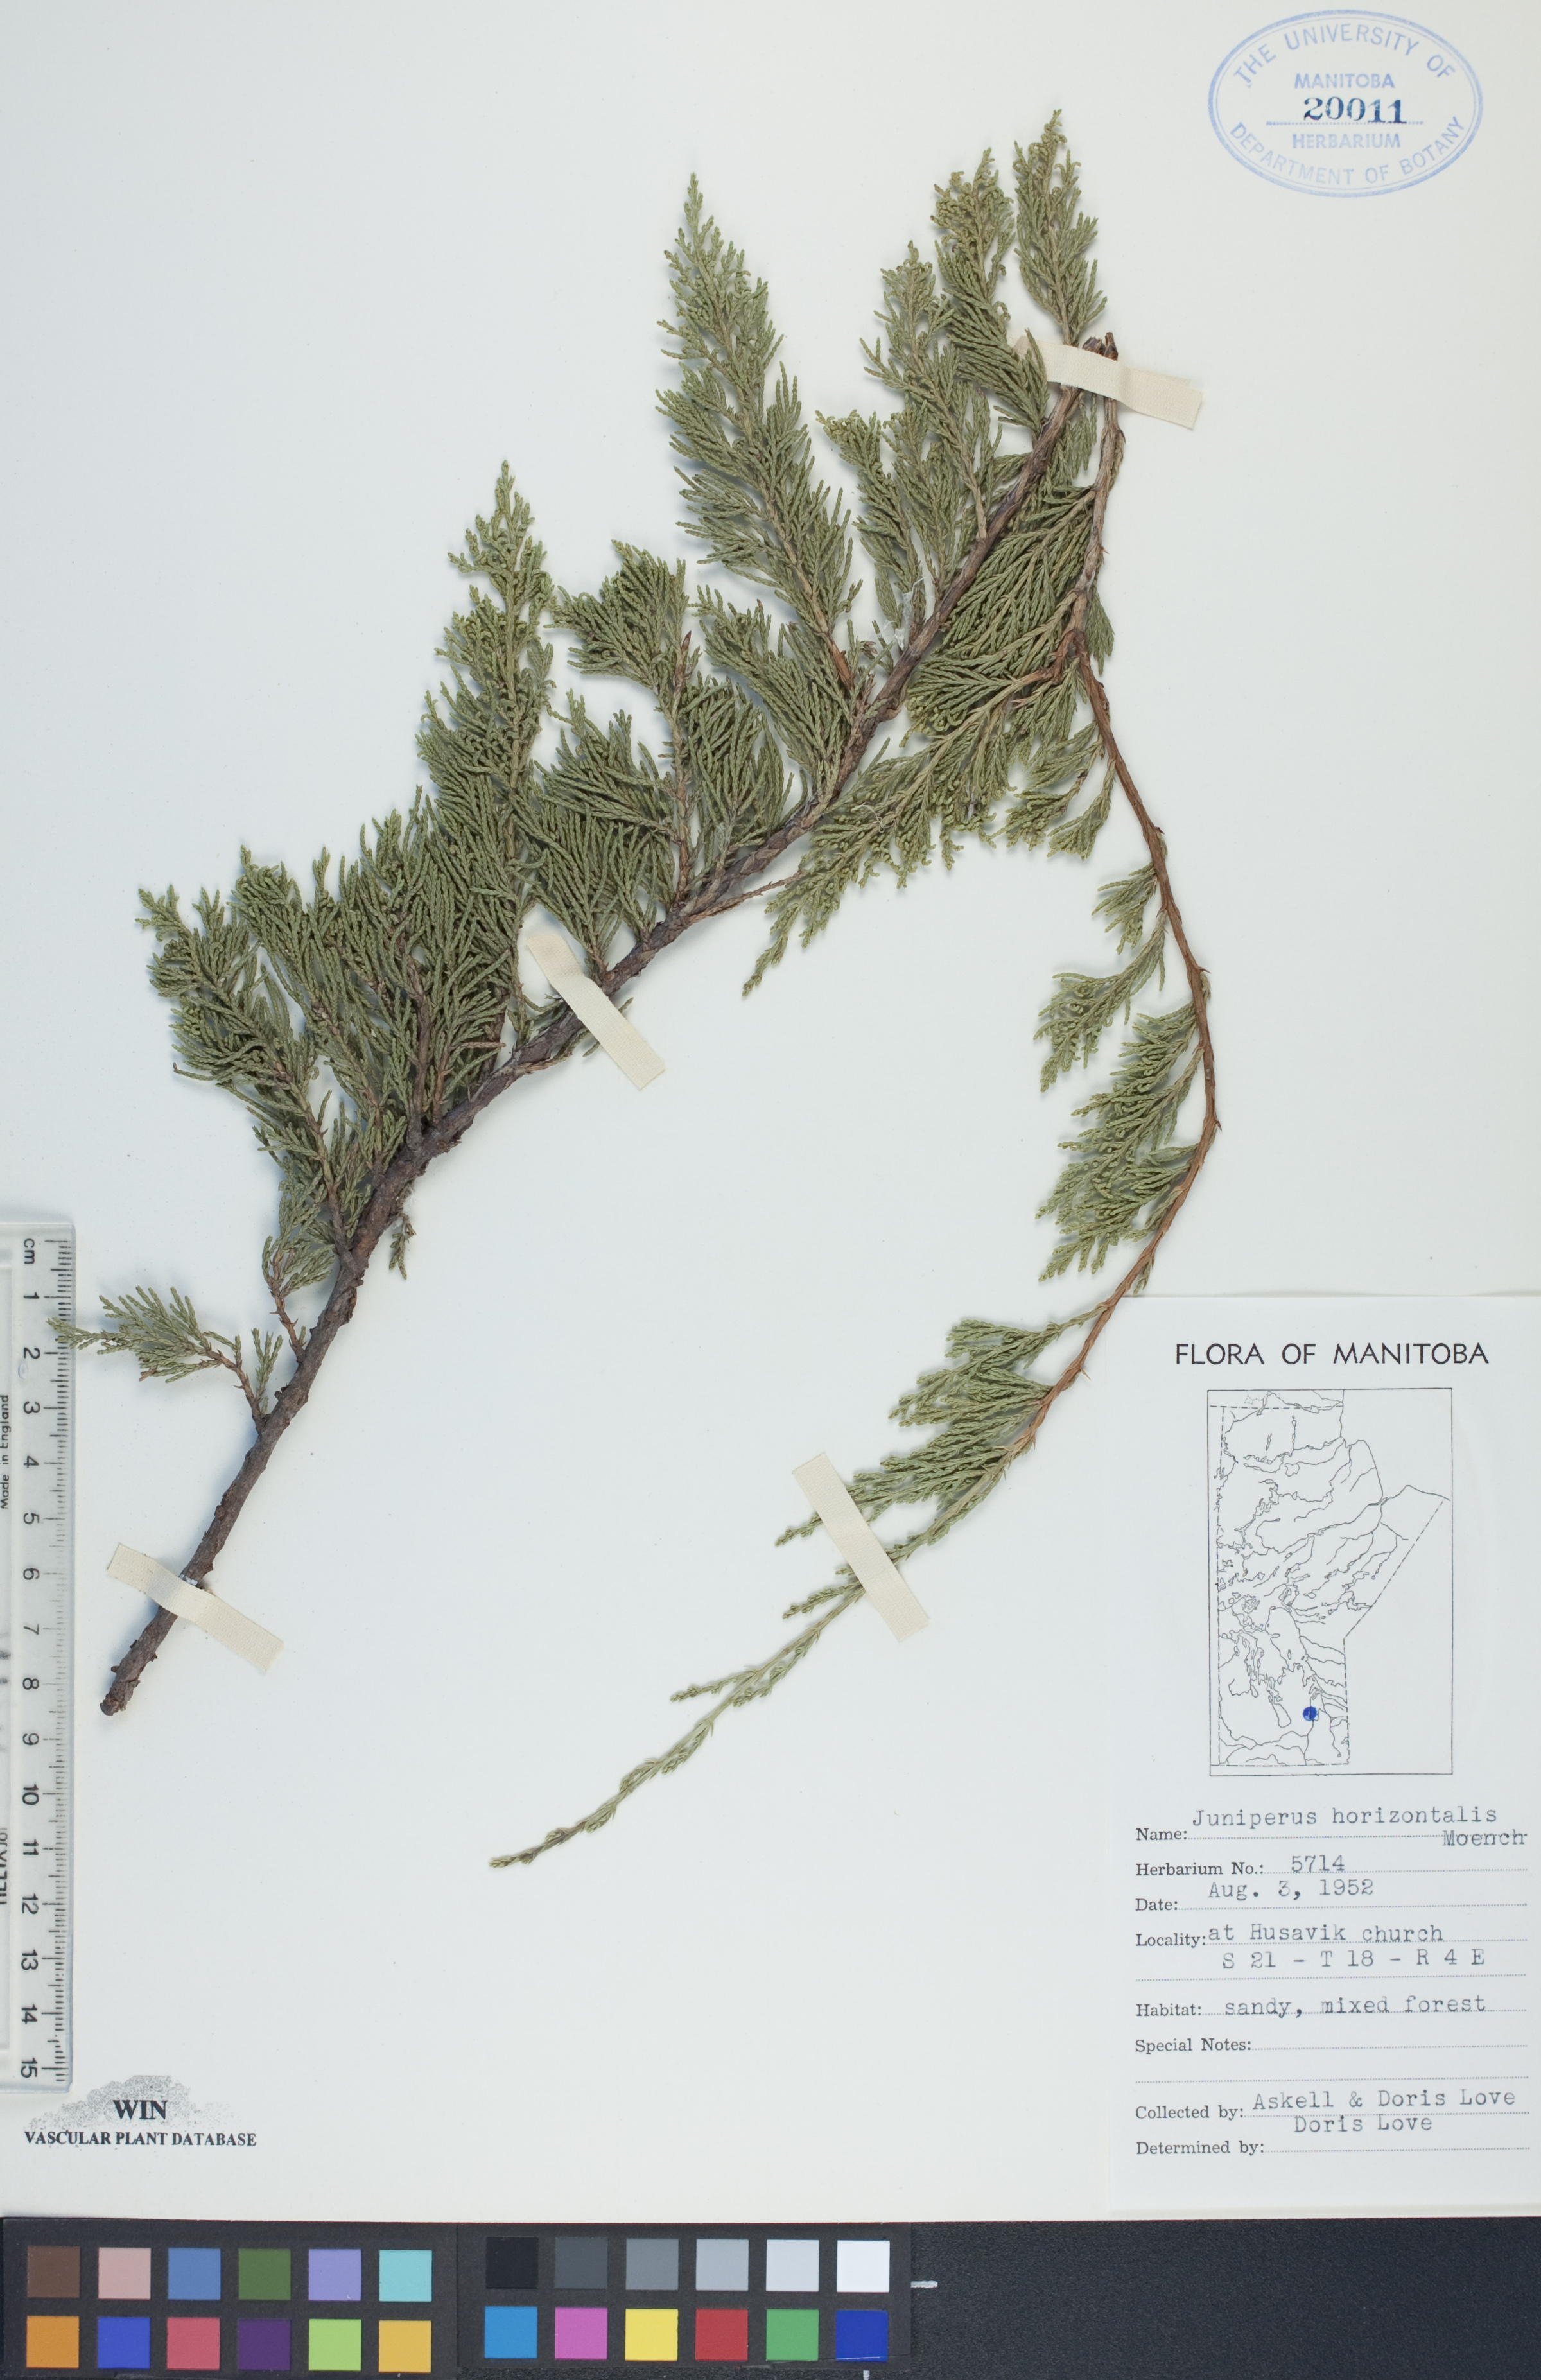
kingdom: Plantae
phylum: Tracheophyta
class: Pinopsida
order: Pinales
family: Cupressaceae
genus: Juniperus
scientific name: Juniperus horizontalis
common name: Creeping juniper
